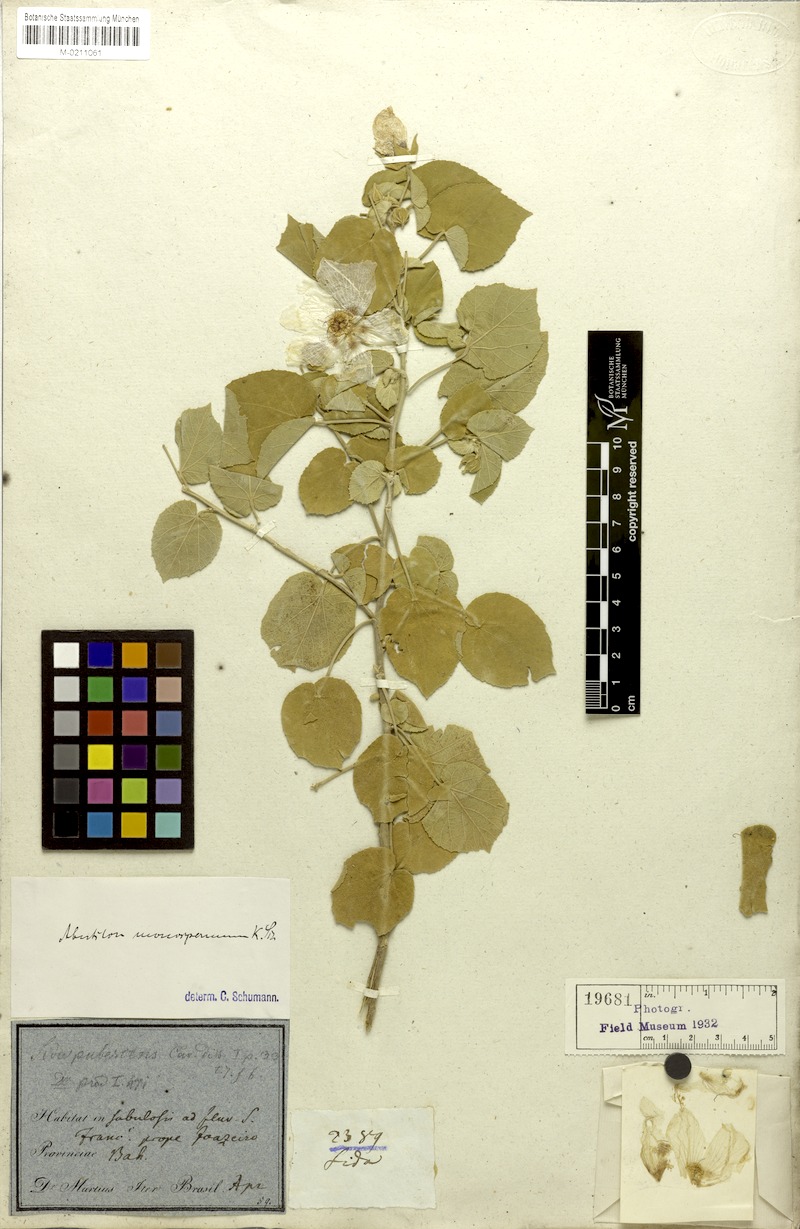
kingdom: Plantae
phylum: Tracheophyta
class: Magnoliopsida
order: Malvales
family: Malvaceae
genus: Gaya
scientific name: Gaya monosperma
